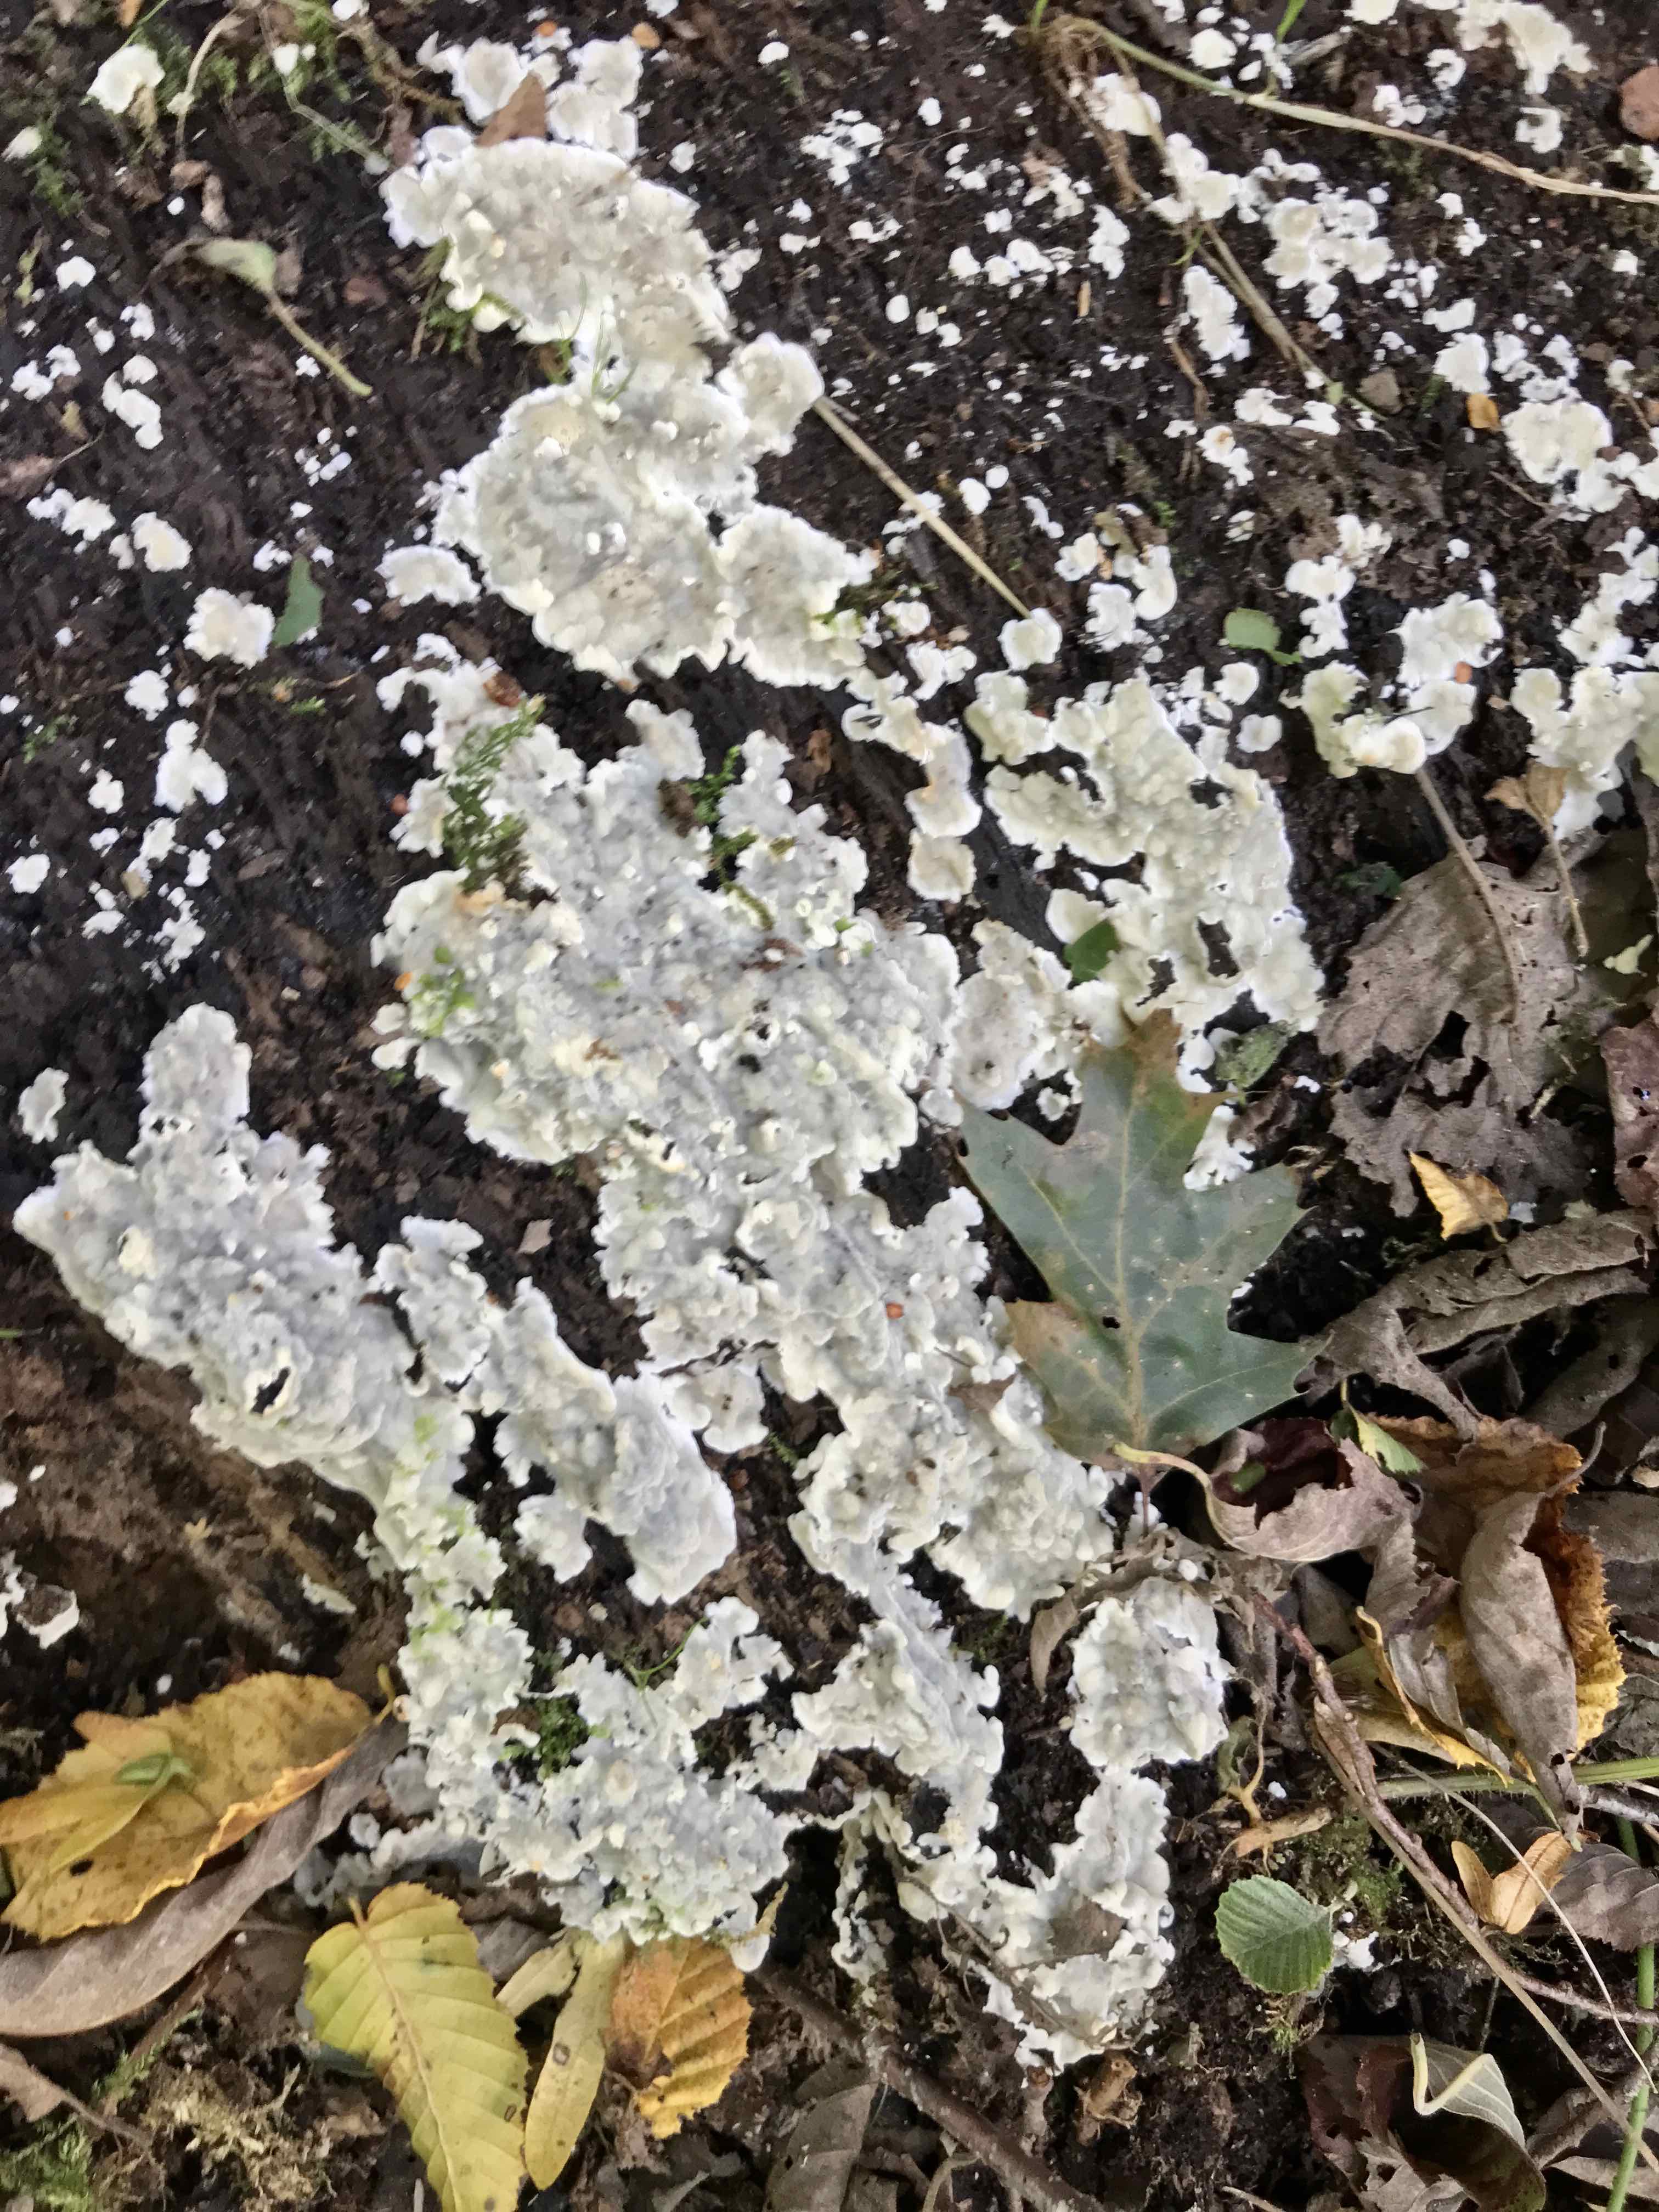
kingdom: Fungi
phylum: Basidiomycota
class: Agaricomycetes
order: Polyporales
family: Meruliaceae
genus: Physisporinus
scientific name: Physisporinus vitreus
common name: mastesvamp
